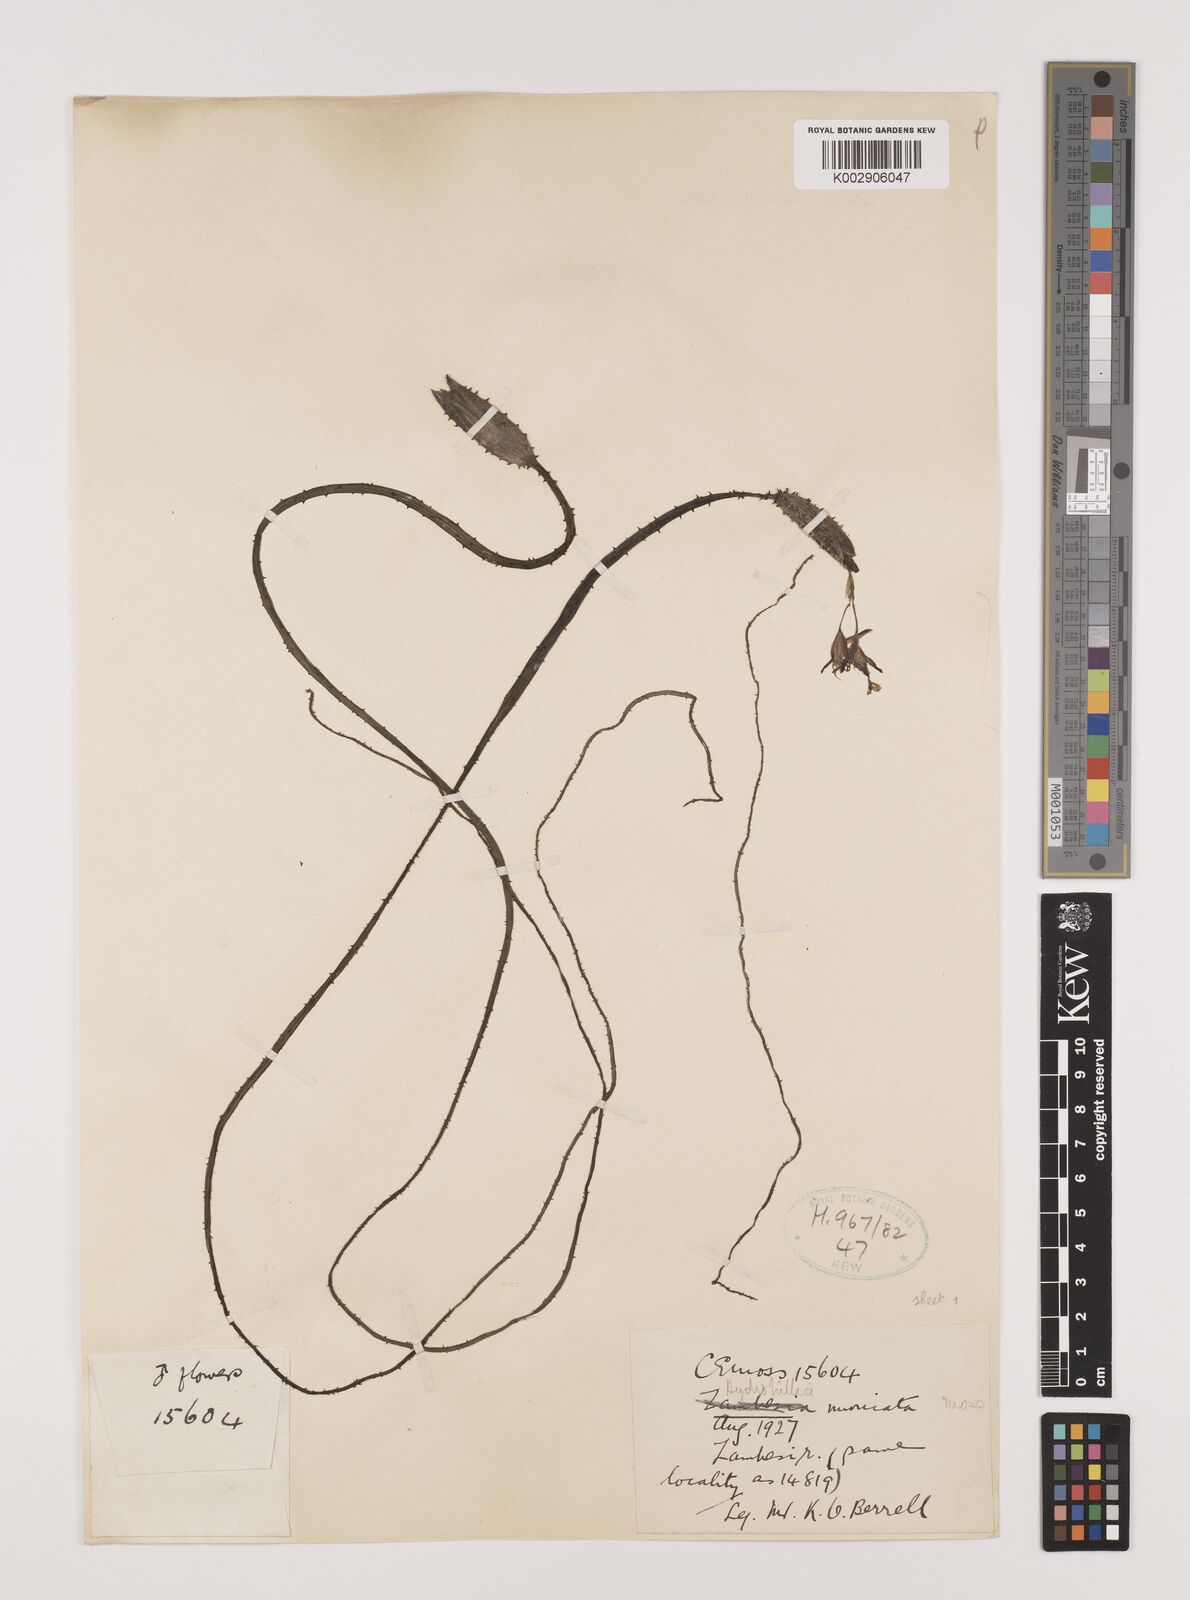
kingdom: Plantae
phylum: Tracheophyta
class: Liliopsida
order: Alismatales
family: Hydrocharitaceae
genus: Ottelia
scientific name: Ottelia muricata
